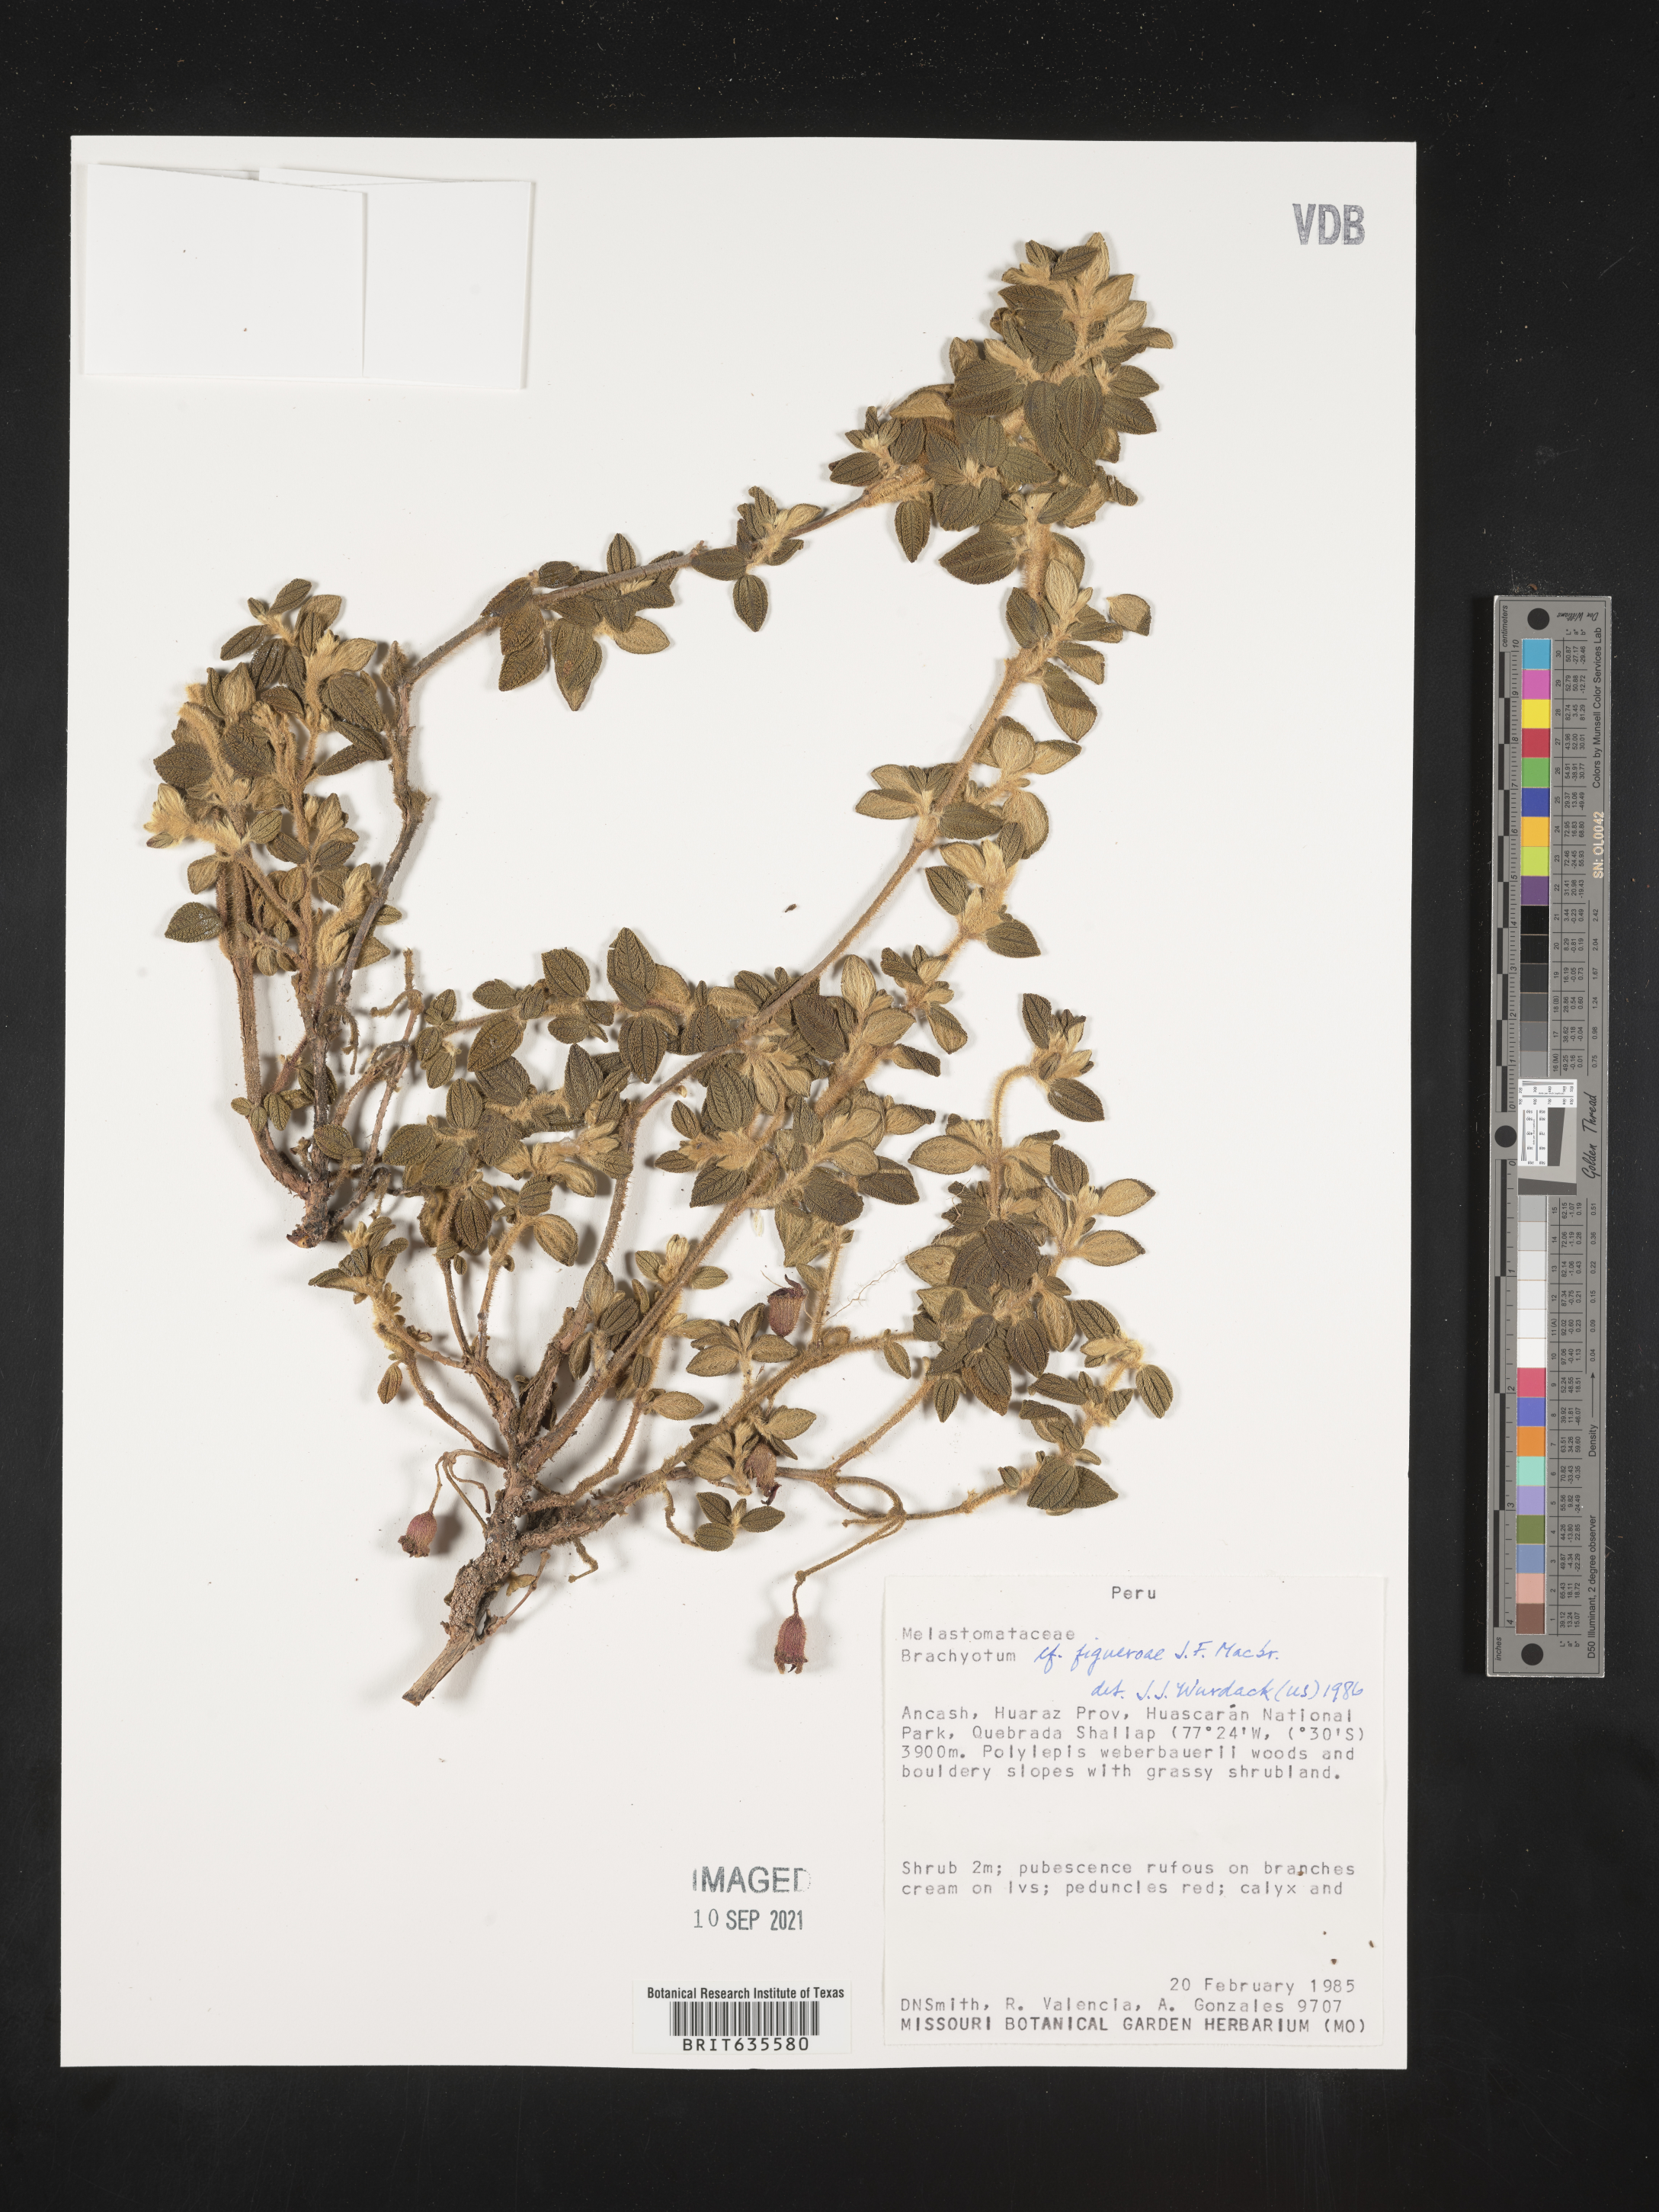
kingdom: Plantae
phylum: Tracheophyta
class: Magnoliopsida
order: Myrtales
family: Melastomataceae
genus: Brachyotum
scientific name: Brachyotum
